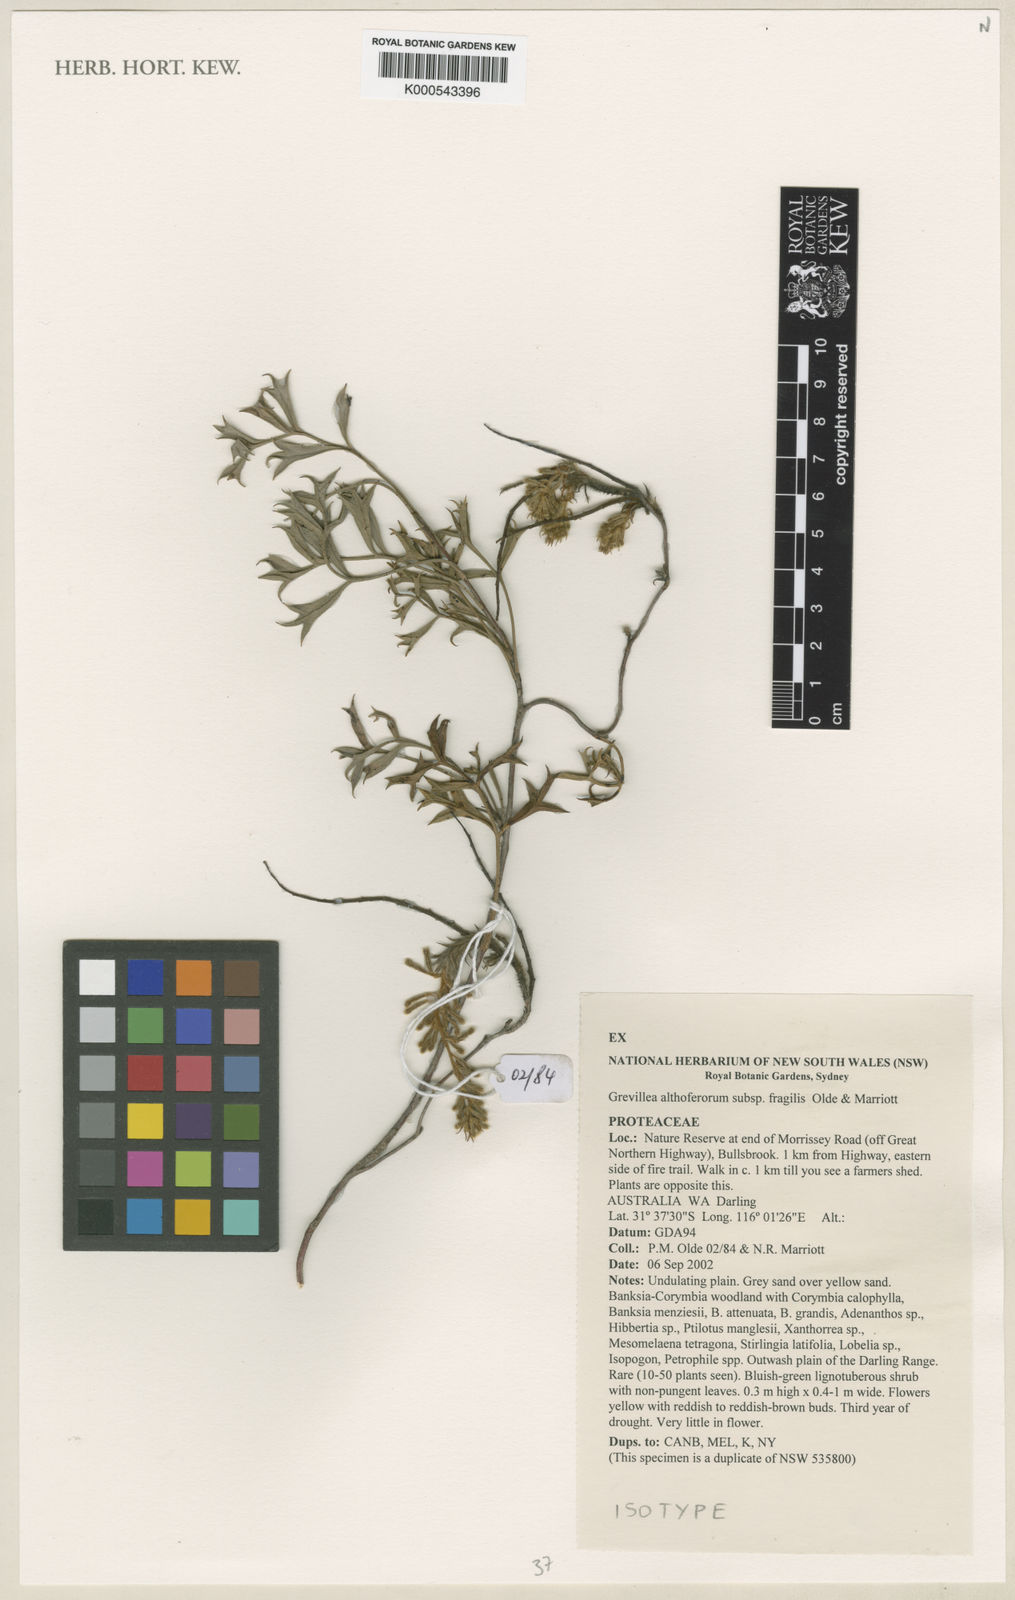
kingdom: Plantae
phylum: Tracheophyta
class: Magnoliopsida
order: Proteales
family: Proteaceae
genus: Grevillea
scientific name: Grevillea althoferorum
